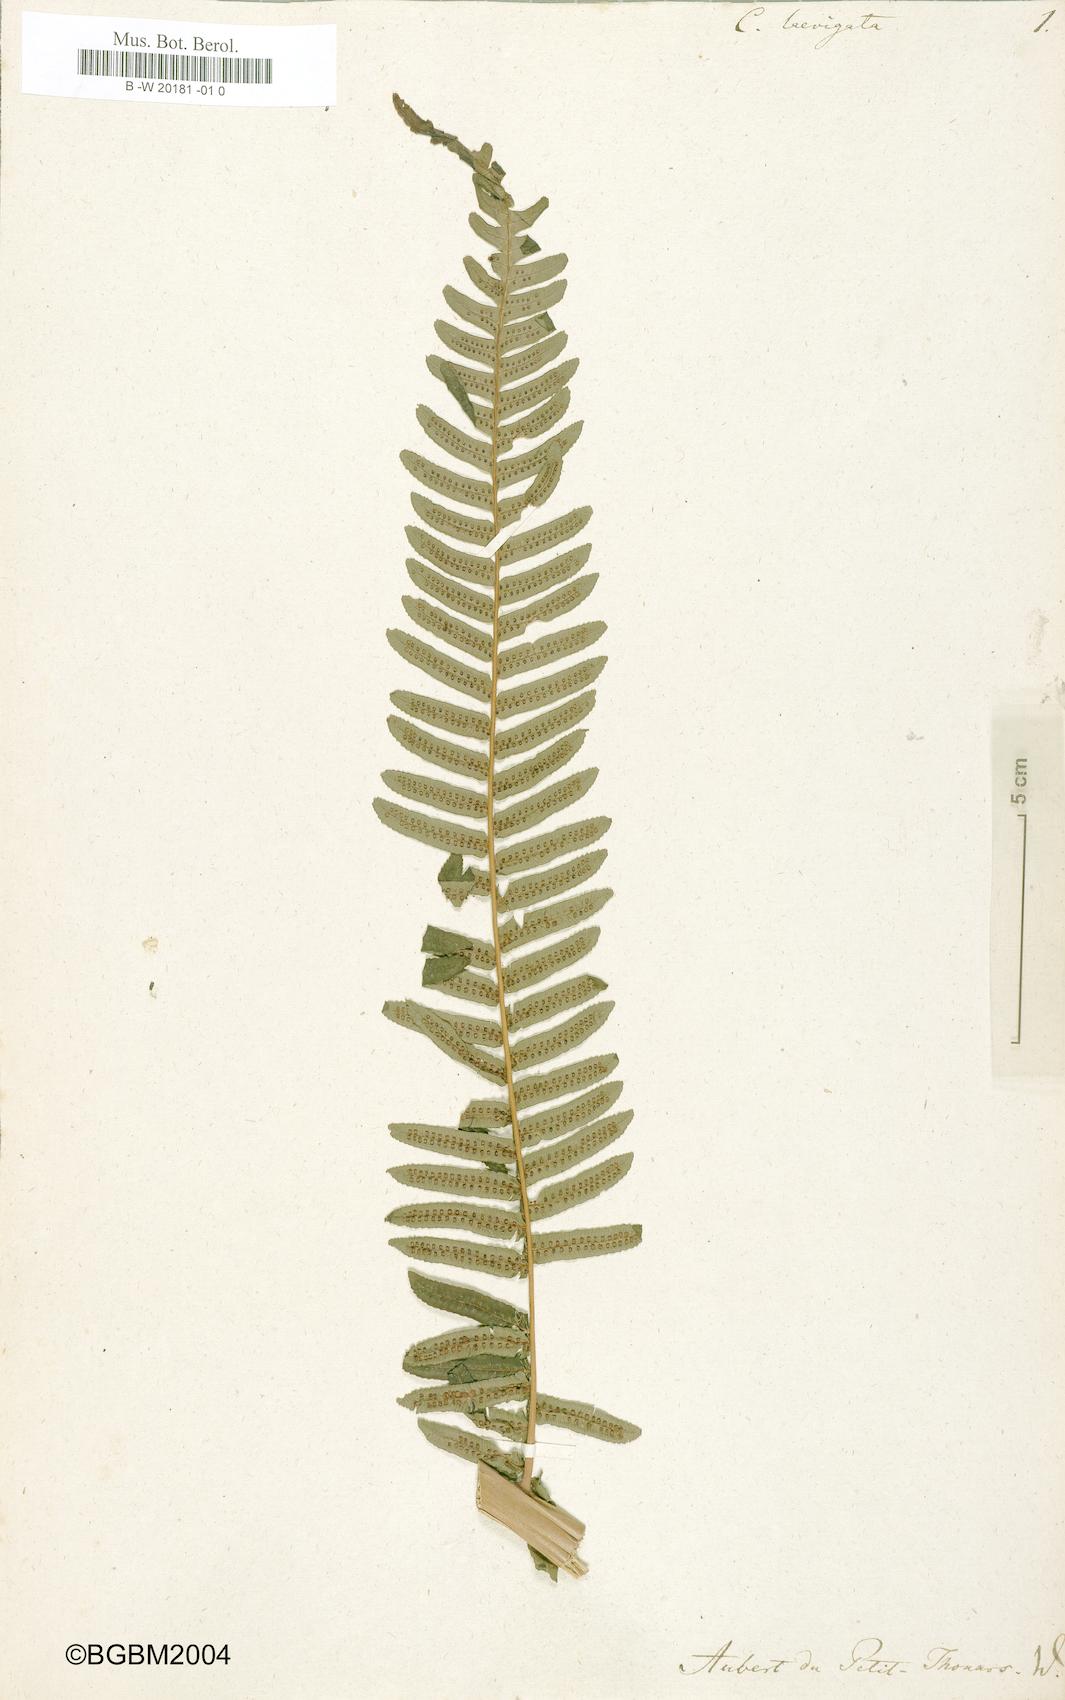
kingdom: Plantae
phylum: Tracheophyta
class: Polypodiopsida
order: Cyatheales
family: Cyatheaceae
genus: Alsophila
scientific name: Alsophila borbonica
